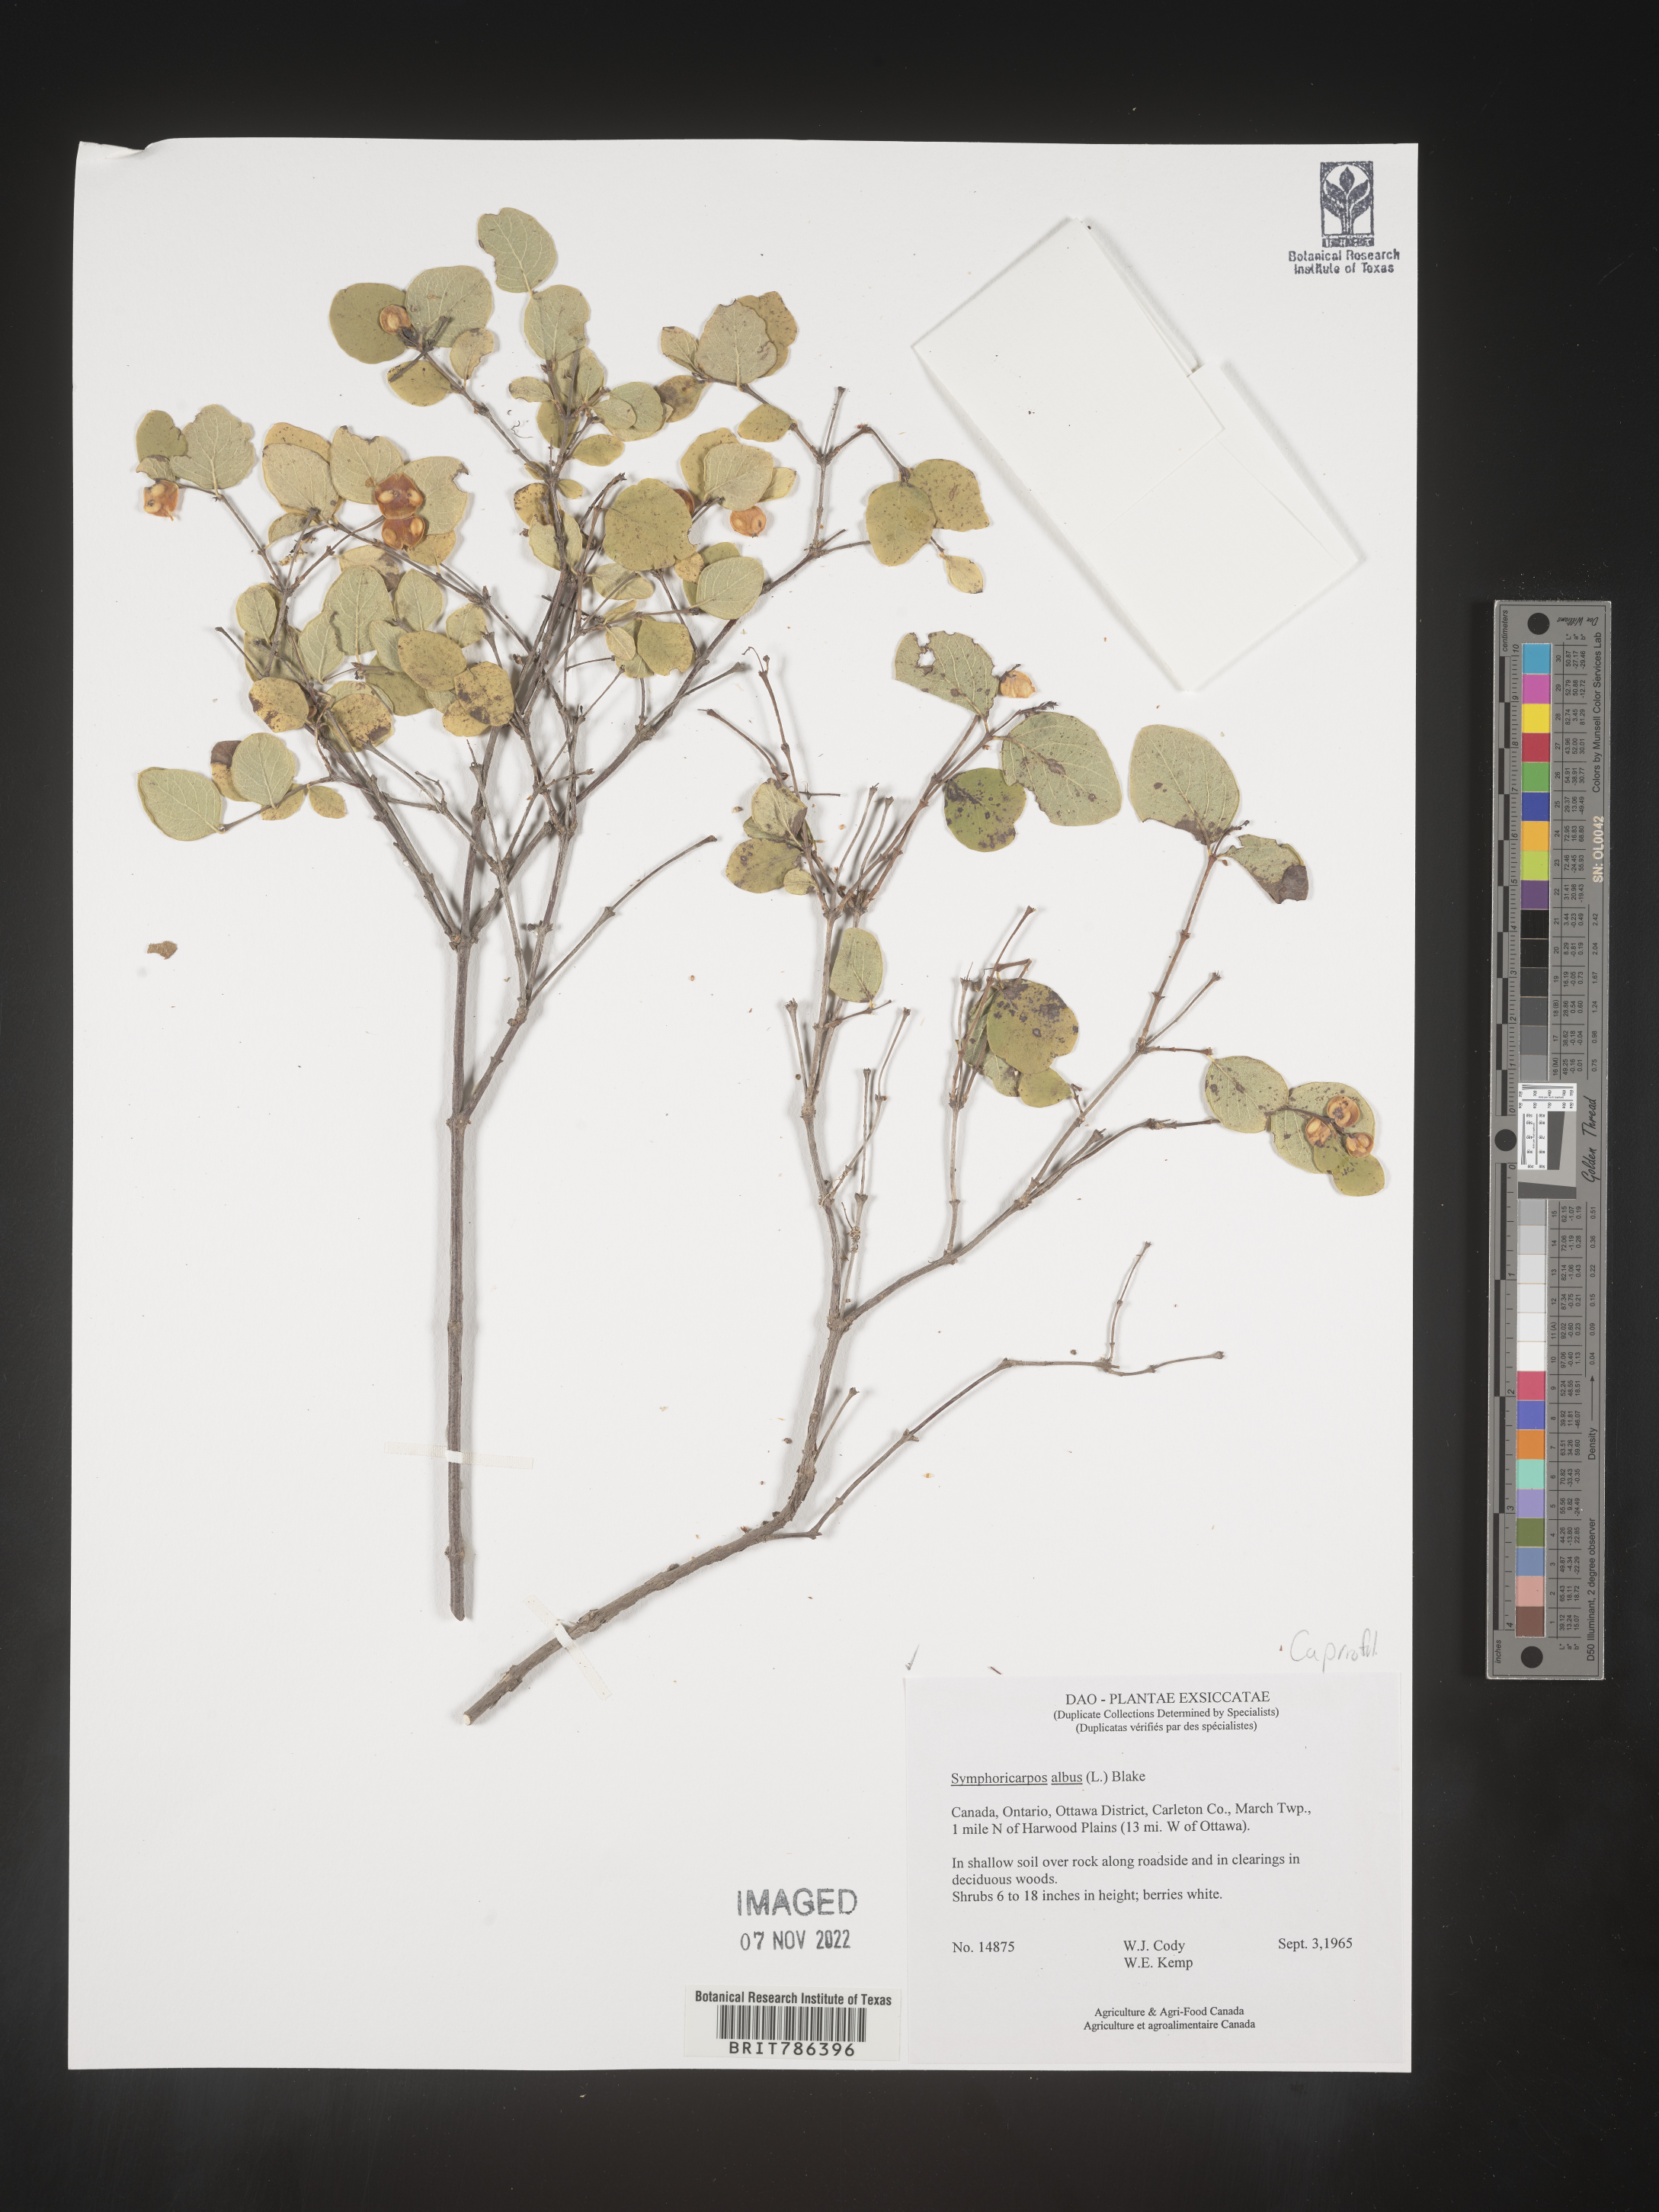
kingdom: Plantae
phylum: Tracheophyta
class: Magnoliopsida
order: Dipsacales
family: Caprifoliaceae
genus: Symphoricarpos
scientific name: Symphoricarpos albus
